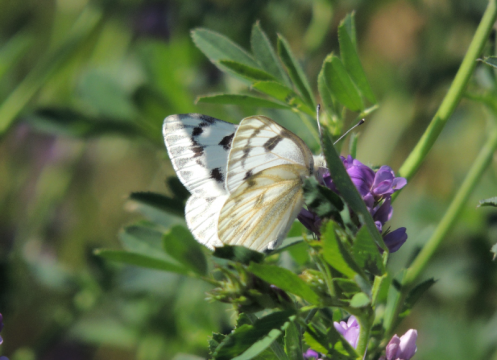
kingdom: Animalia
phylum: Arthropoda
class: Insecta
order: Lepidoptera
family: Pieridae
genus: Pontia
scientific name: Pontia occidentalis
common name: Western White
